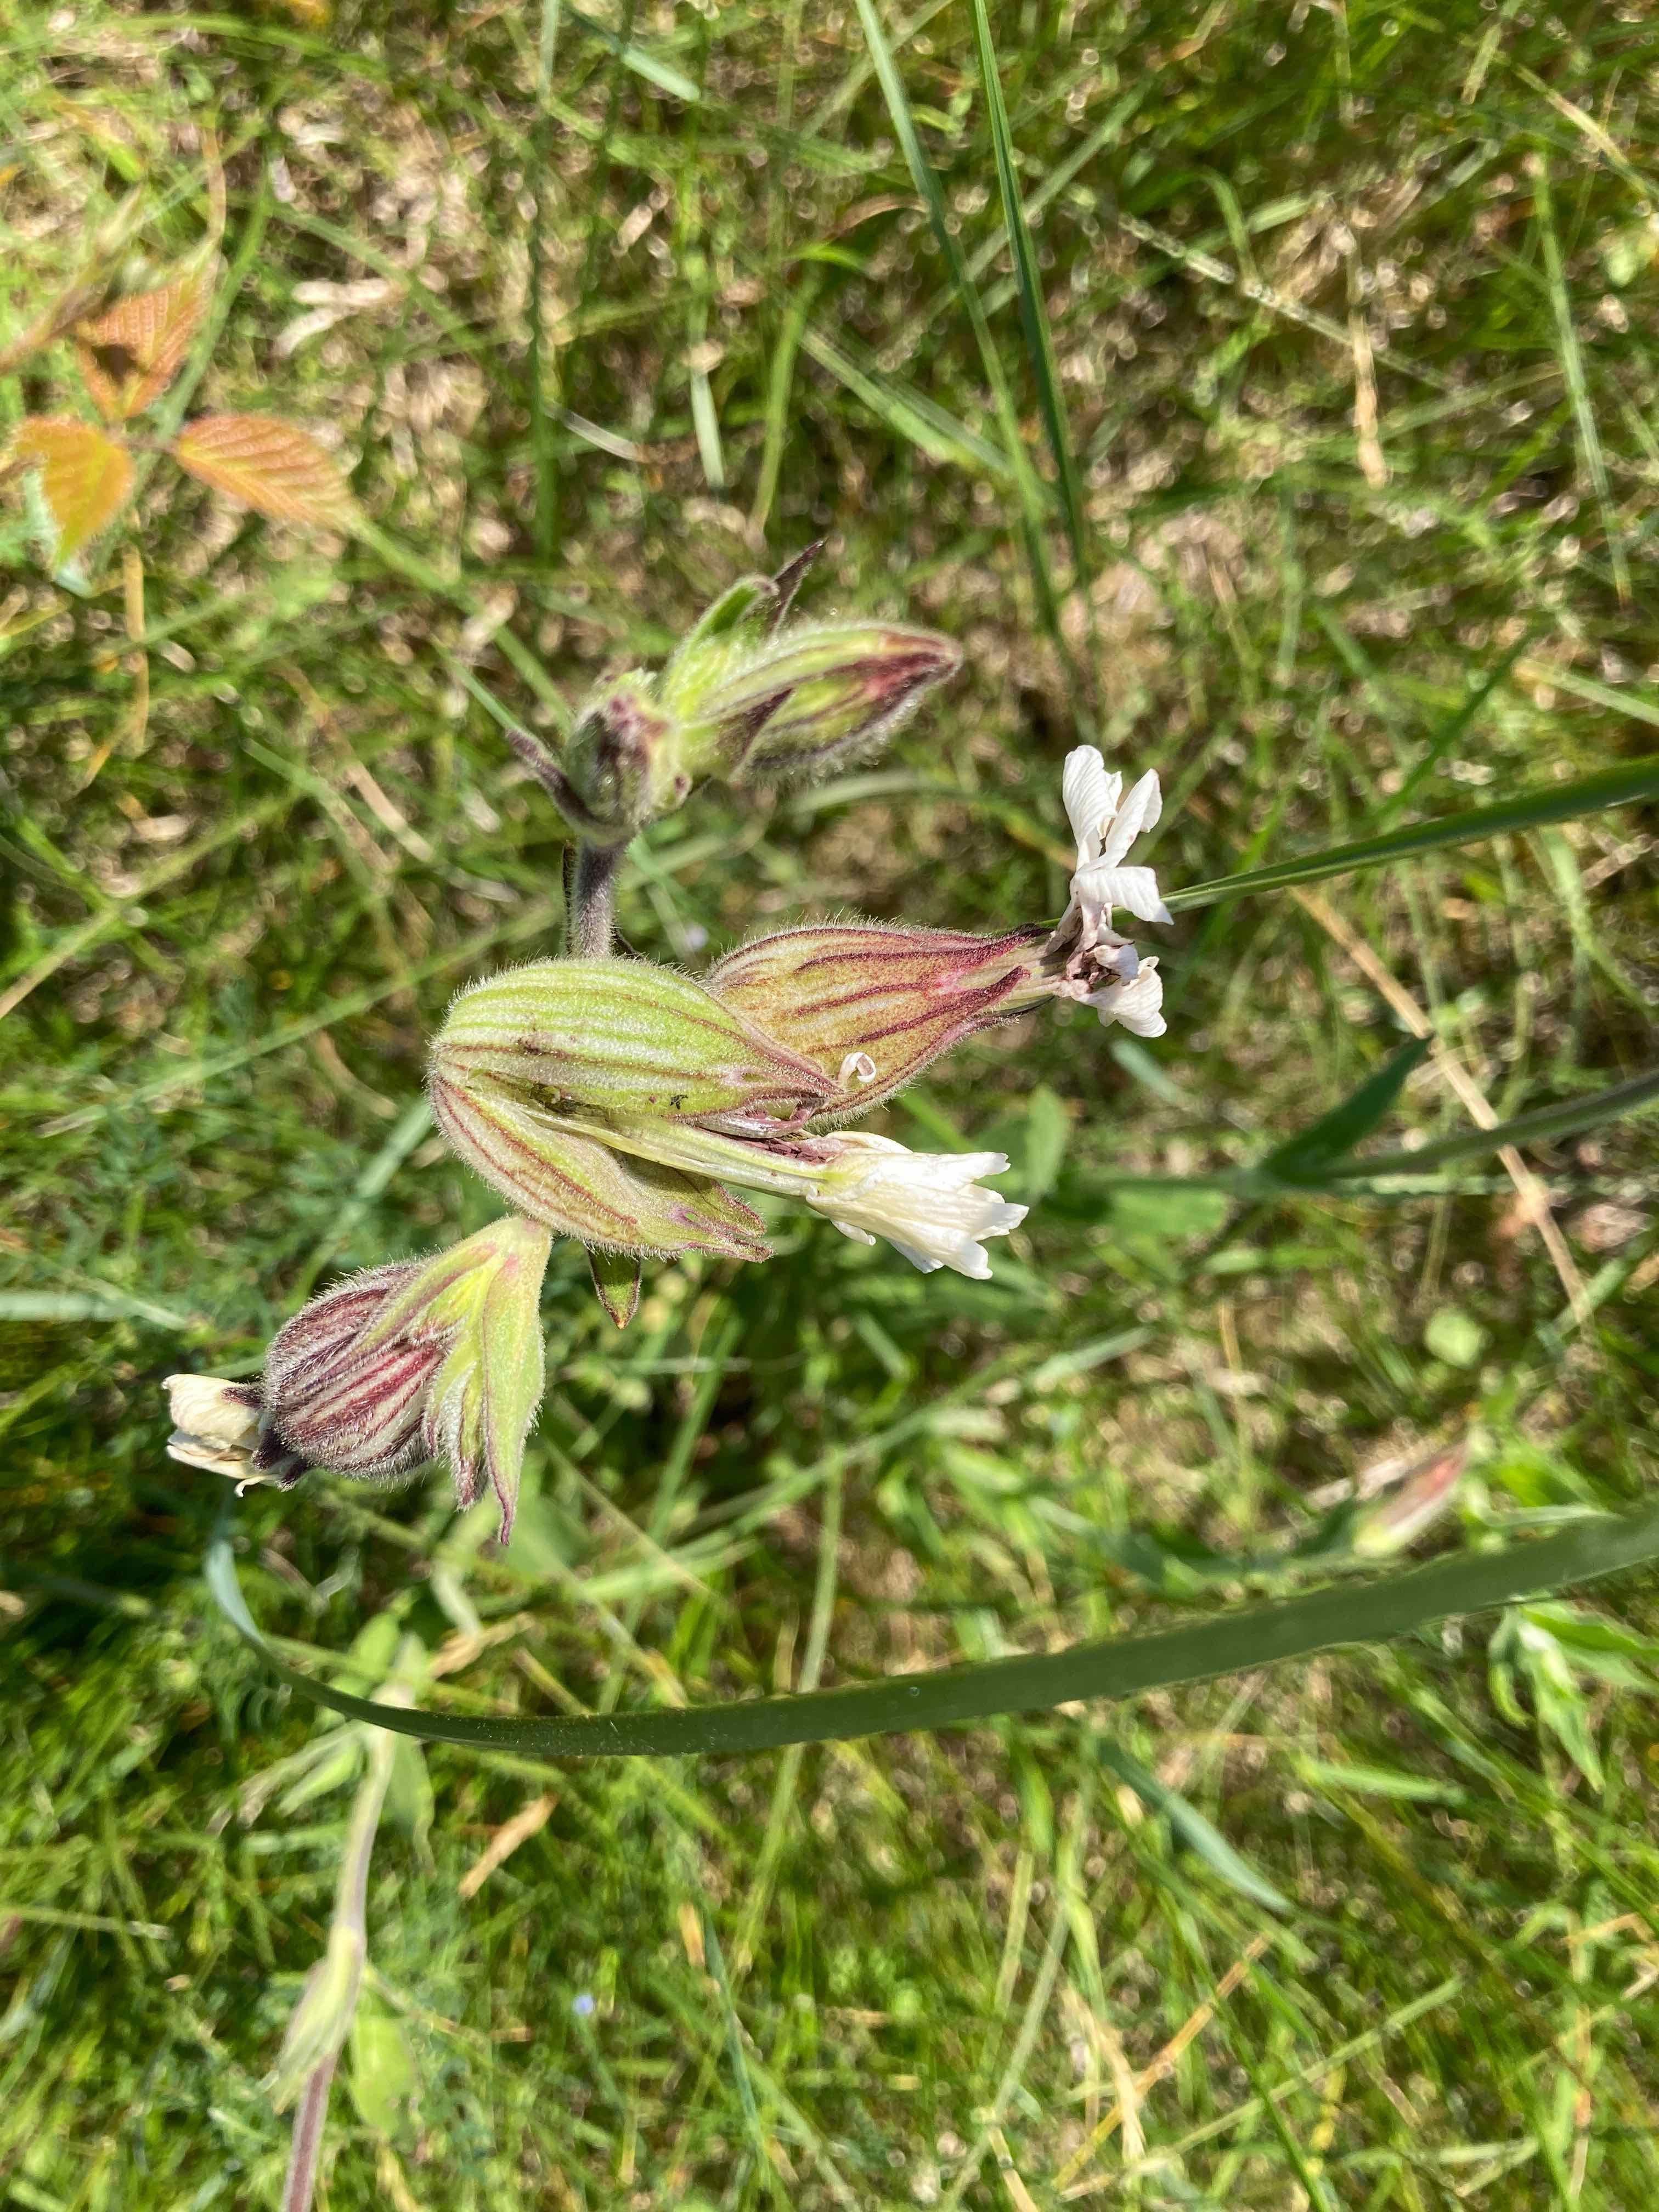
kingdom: Fungi
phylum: Basidiomycota
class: Microbotryomycetes
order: Microbotryales
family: Microbotryaceae
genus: Microbotryum
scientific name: Microbotryum lychnidis-dioicae
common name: Campion anther smut
